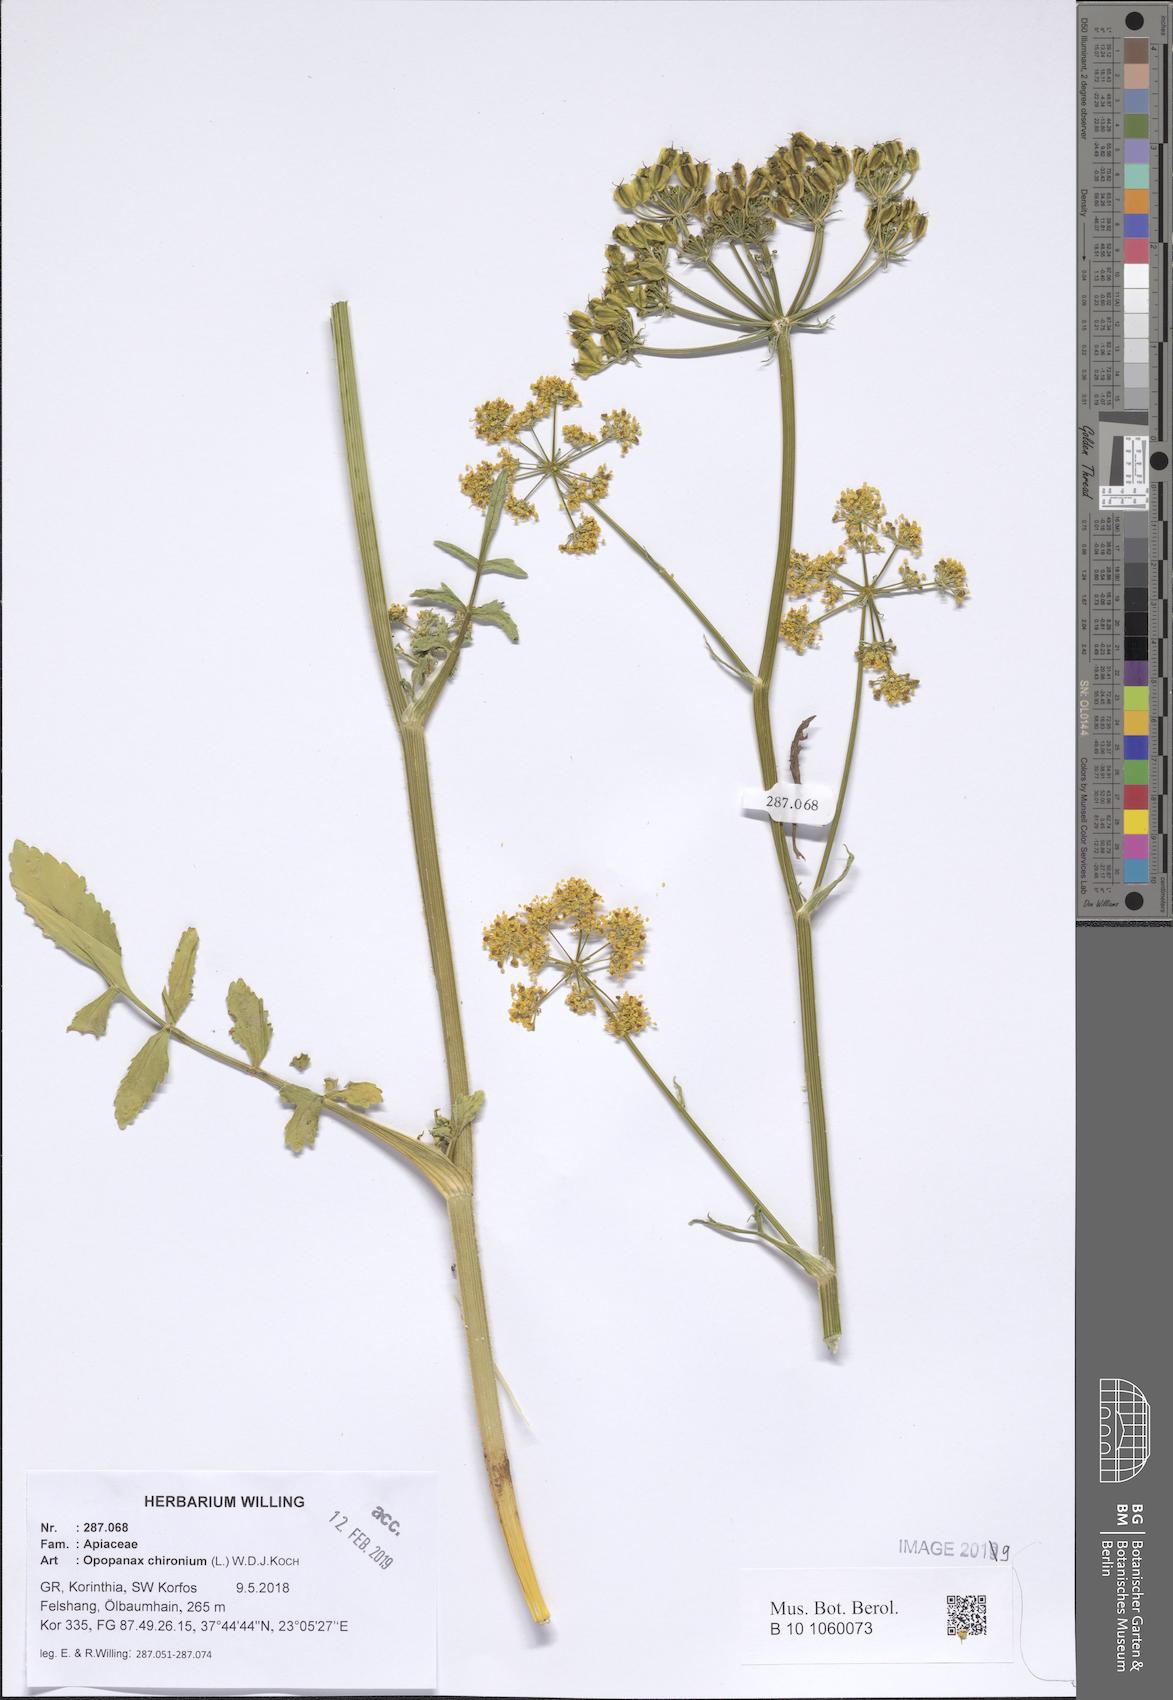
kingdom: Plantae
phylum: Tracheophyta
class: Magnoliopsida
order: Apiales
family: Apiaceae
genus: Opopanax
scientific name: Opopanax chironium
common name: Hercules-all-heal
